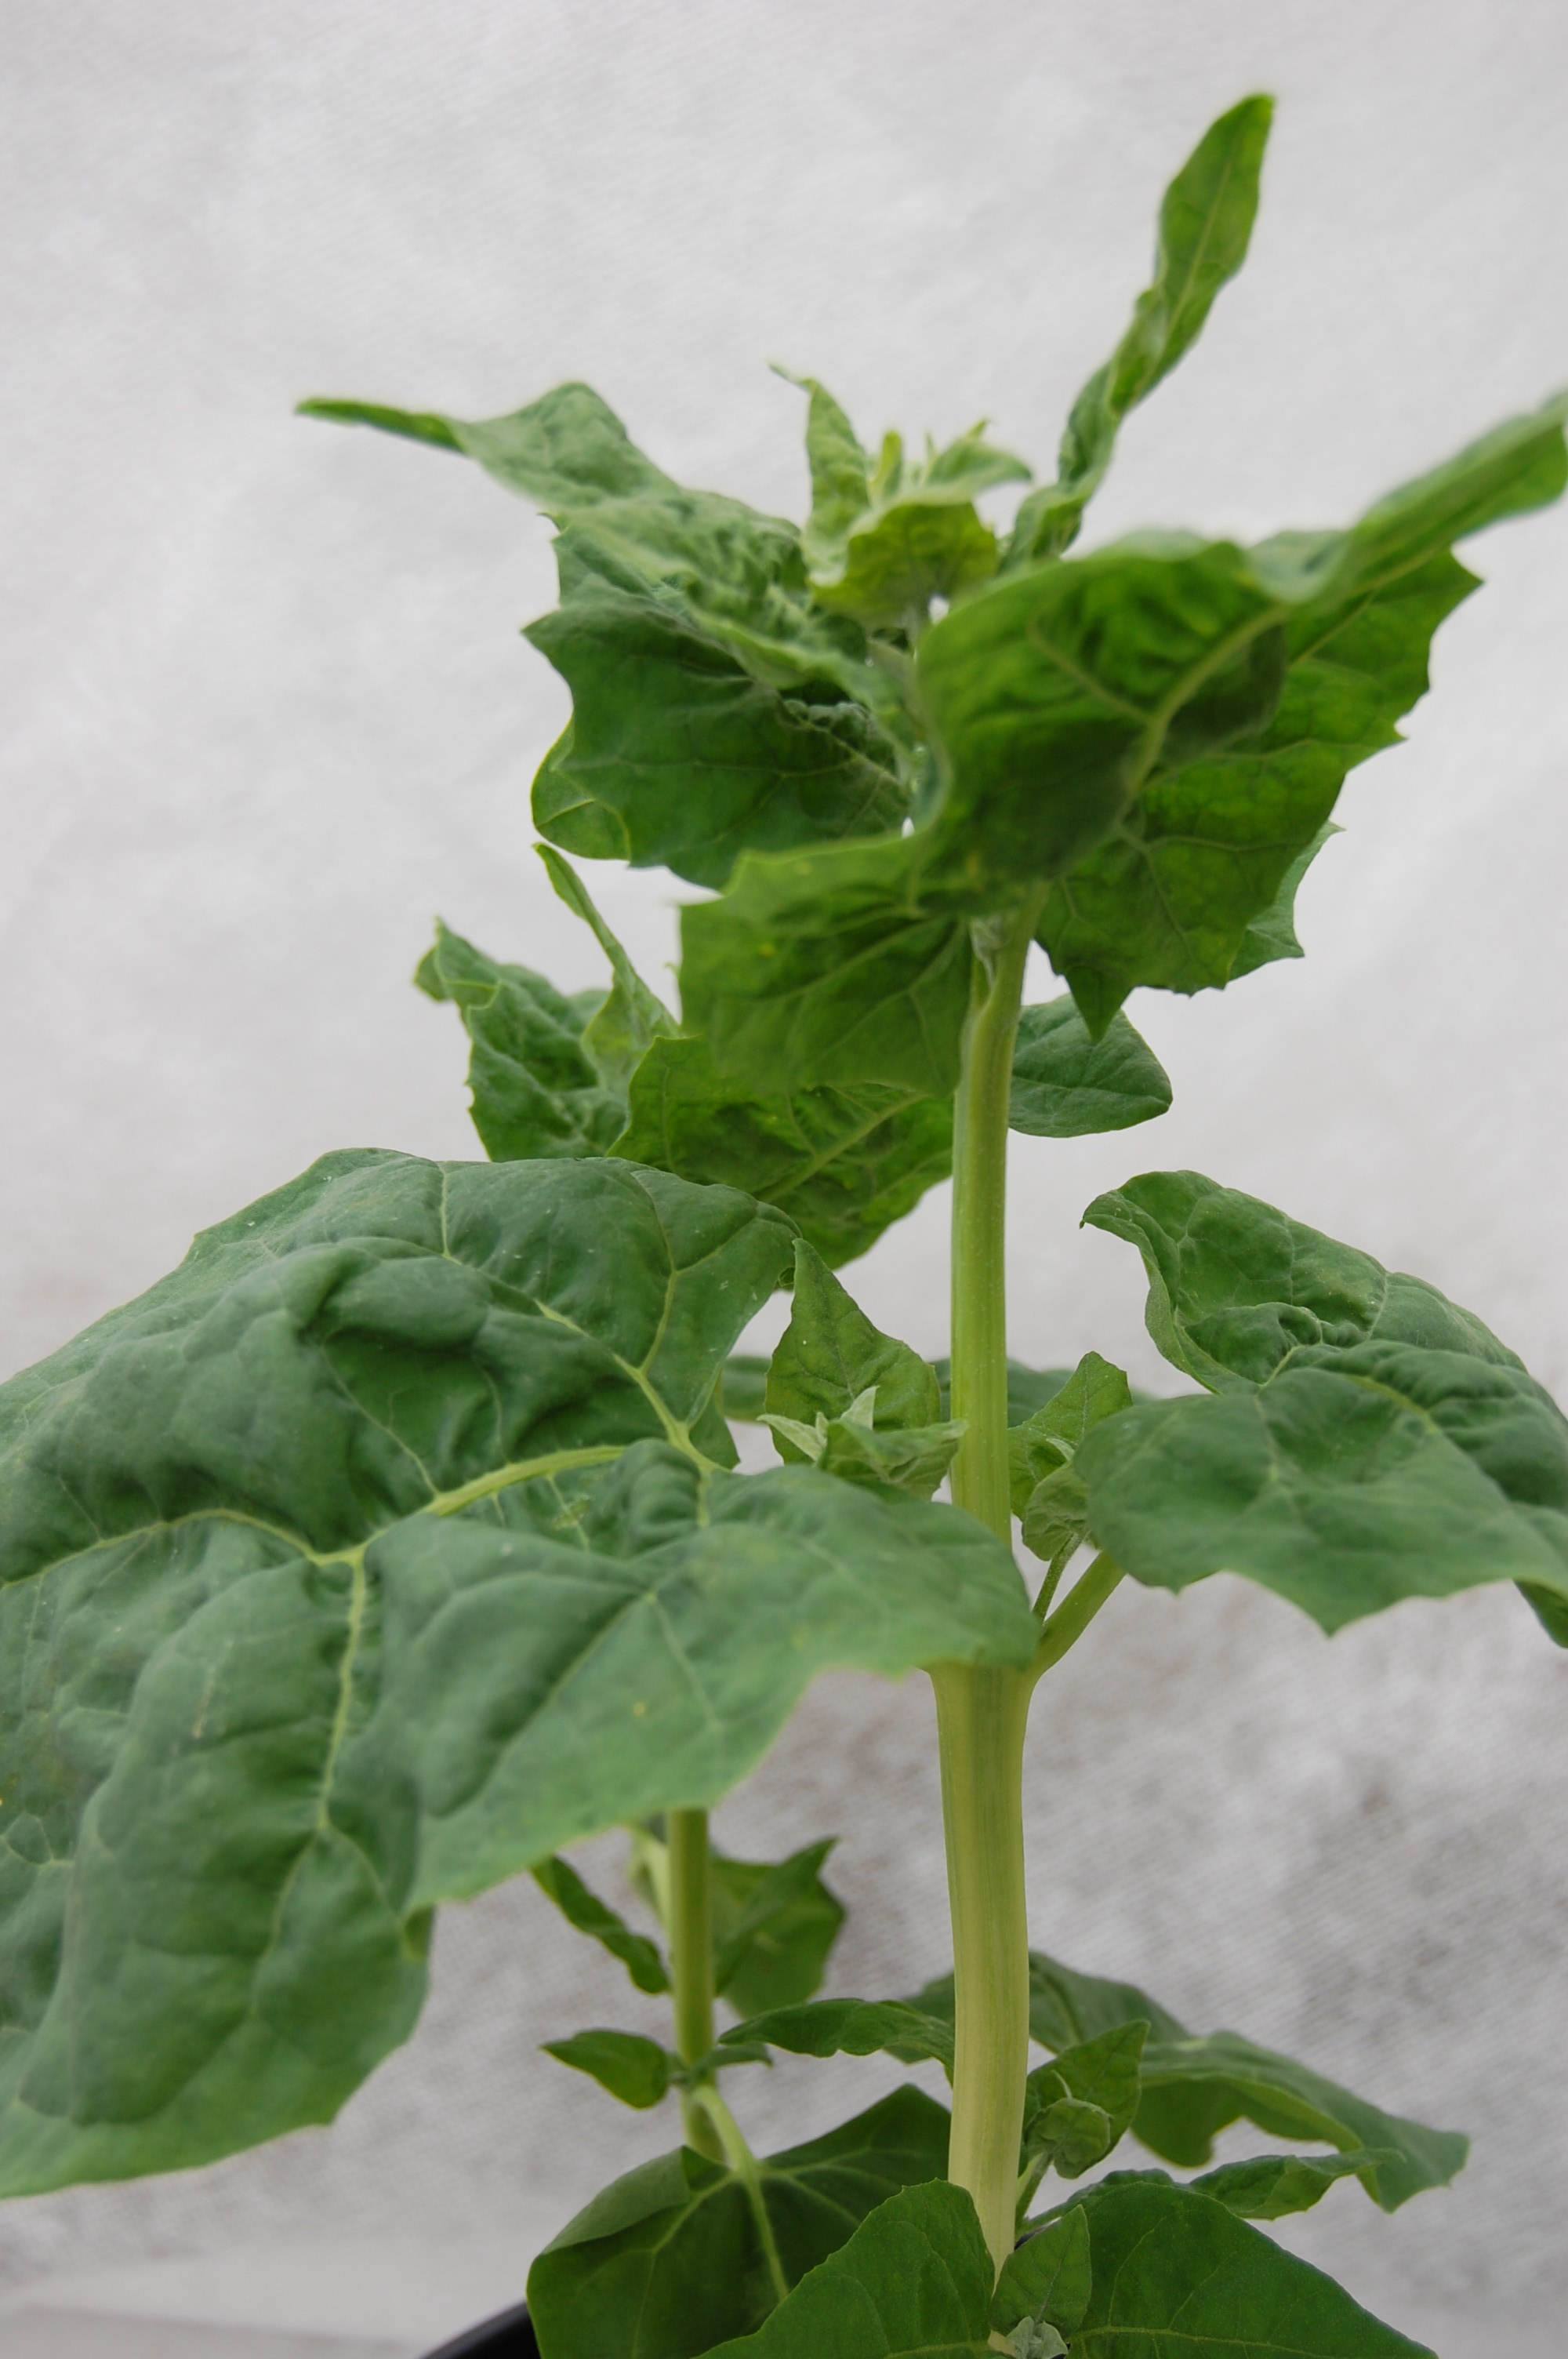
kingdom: Plantae
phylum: Tracheophyta
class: Magnoliopsida
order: Caryophyllales
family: Amaranthaceae
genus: Atriplex
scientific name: Atriplex hortensis
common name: Garden orache
